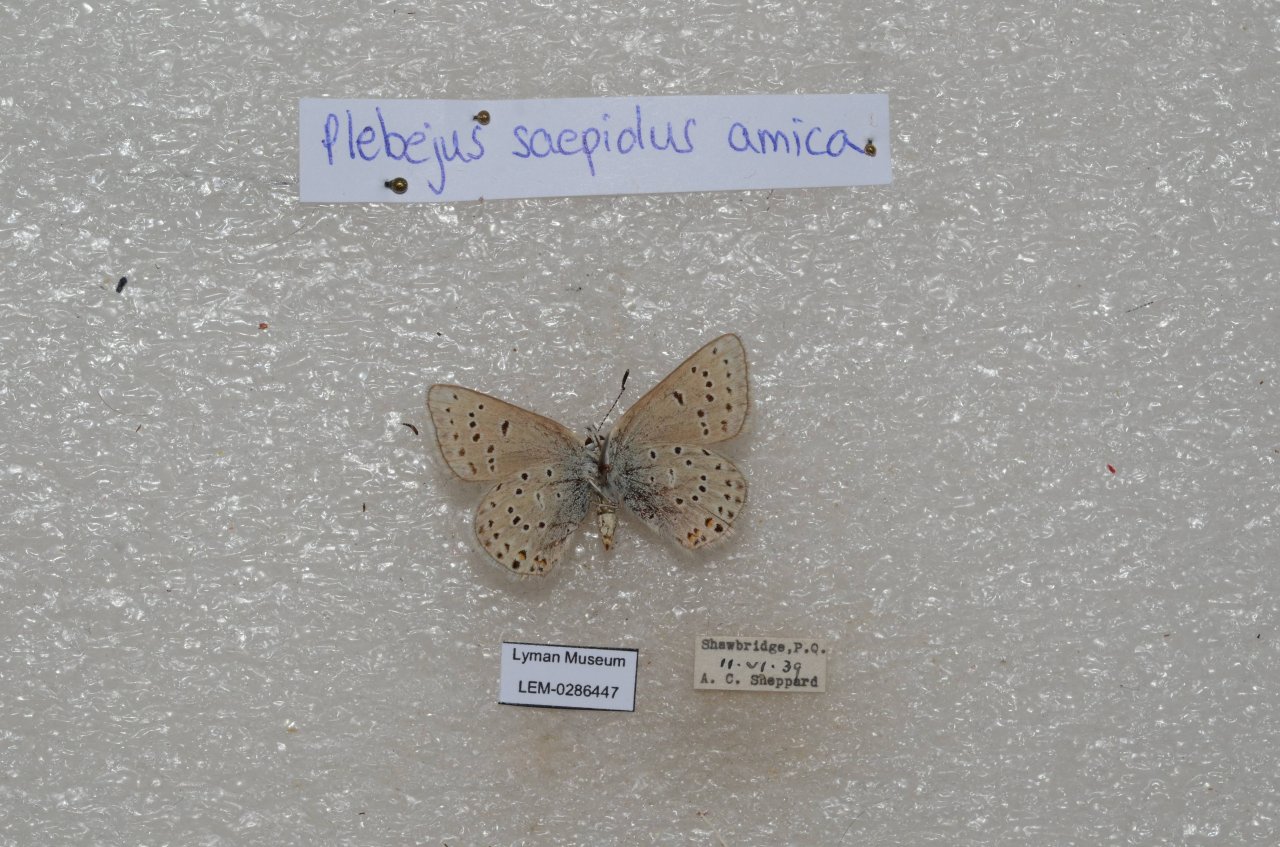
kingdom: Animalia
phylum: Arthropoda
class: Insecta
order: Lepidoptera
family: Lycaenidae
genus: Plebejus
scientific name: Plebejus saepiolus
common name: Greenish Blue
